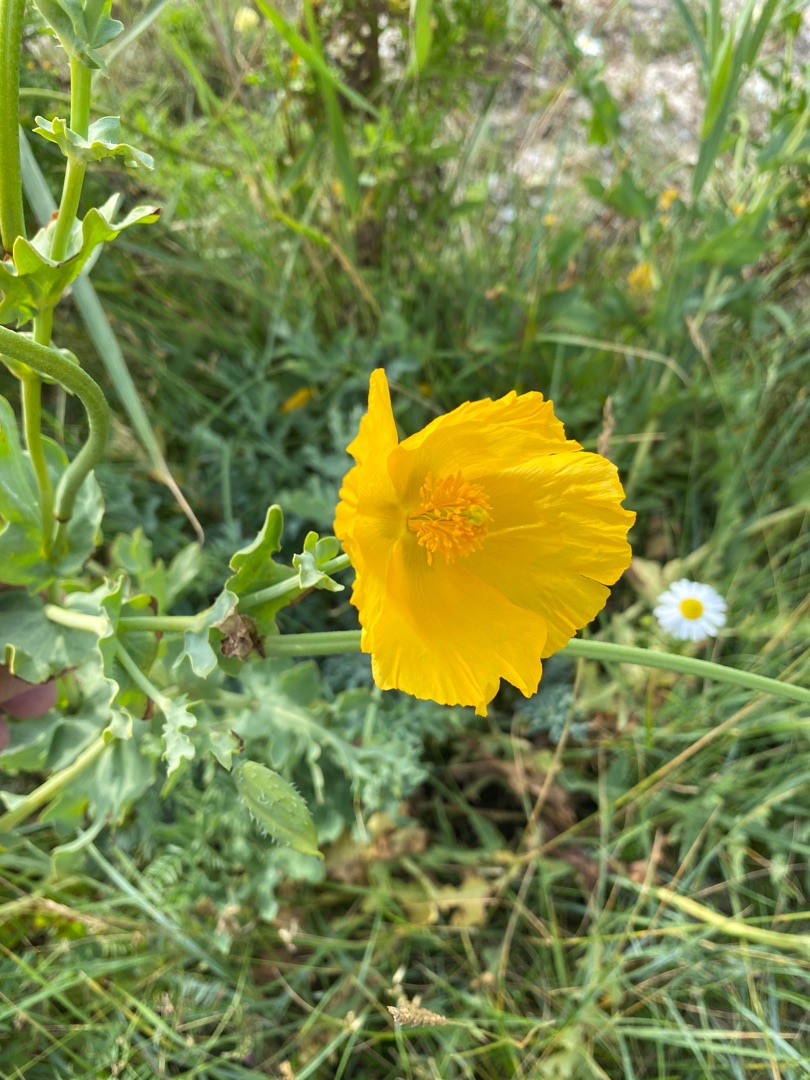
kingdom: Plantae
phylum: Tracheophyta
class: Magnoliopsida
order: Ranunculales
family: Papaveraceae
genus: Glaucium
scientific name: Glaucium flavum
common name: Hornskulpe
